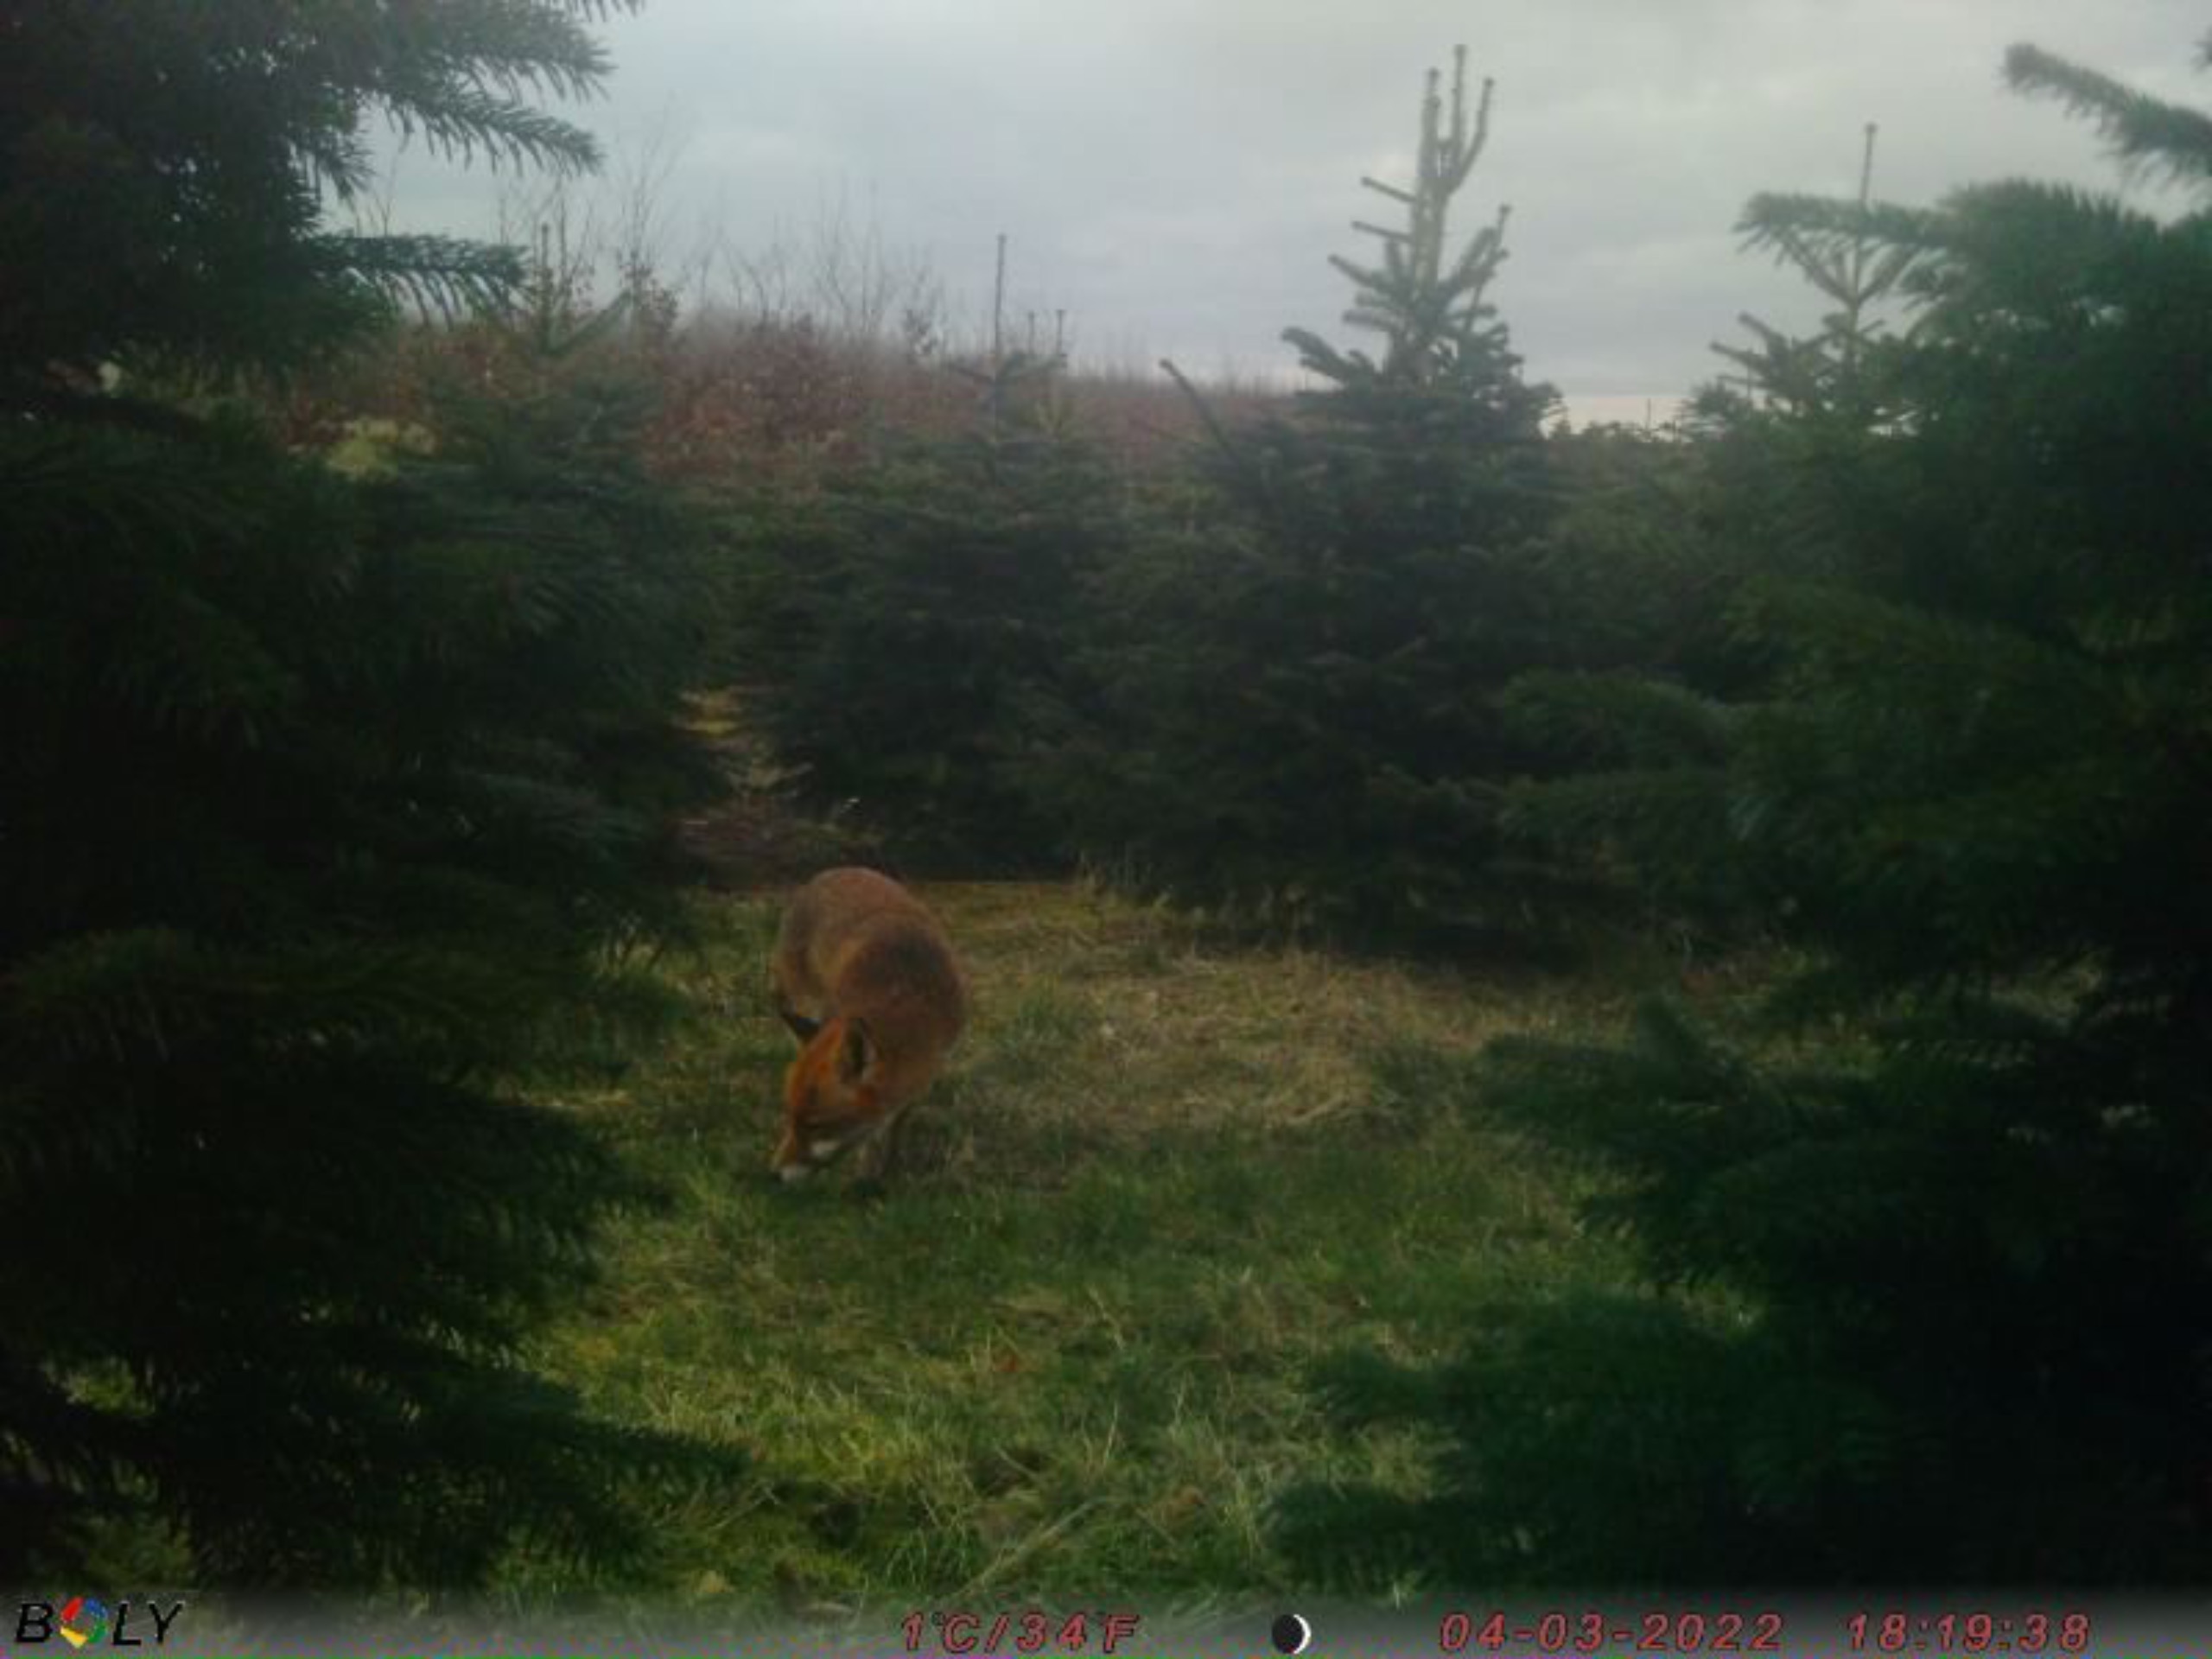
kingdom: Animalia
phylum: Chordata
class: Mammalia
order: Carnivora
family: Canidae
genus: Vulpes
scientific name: Vulpes vulpes
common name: Ræv
